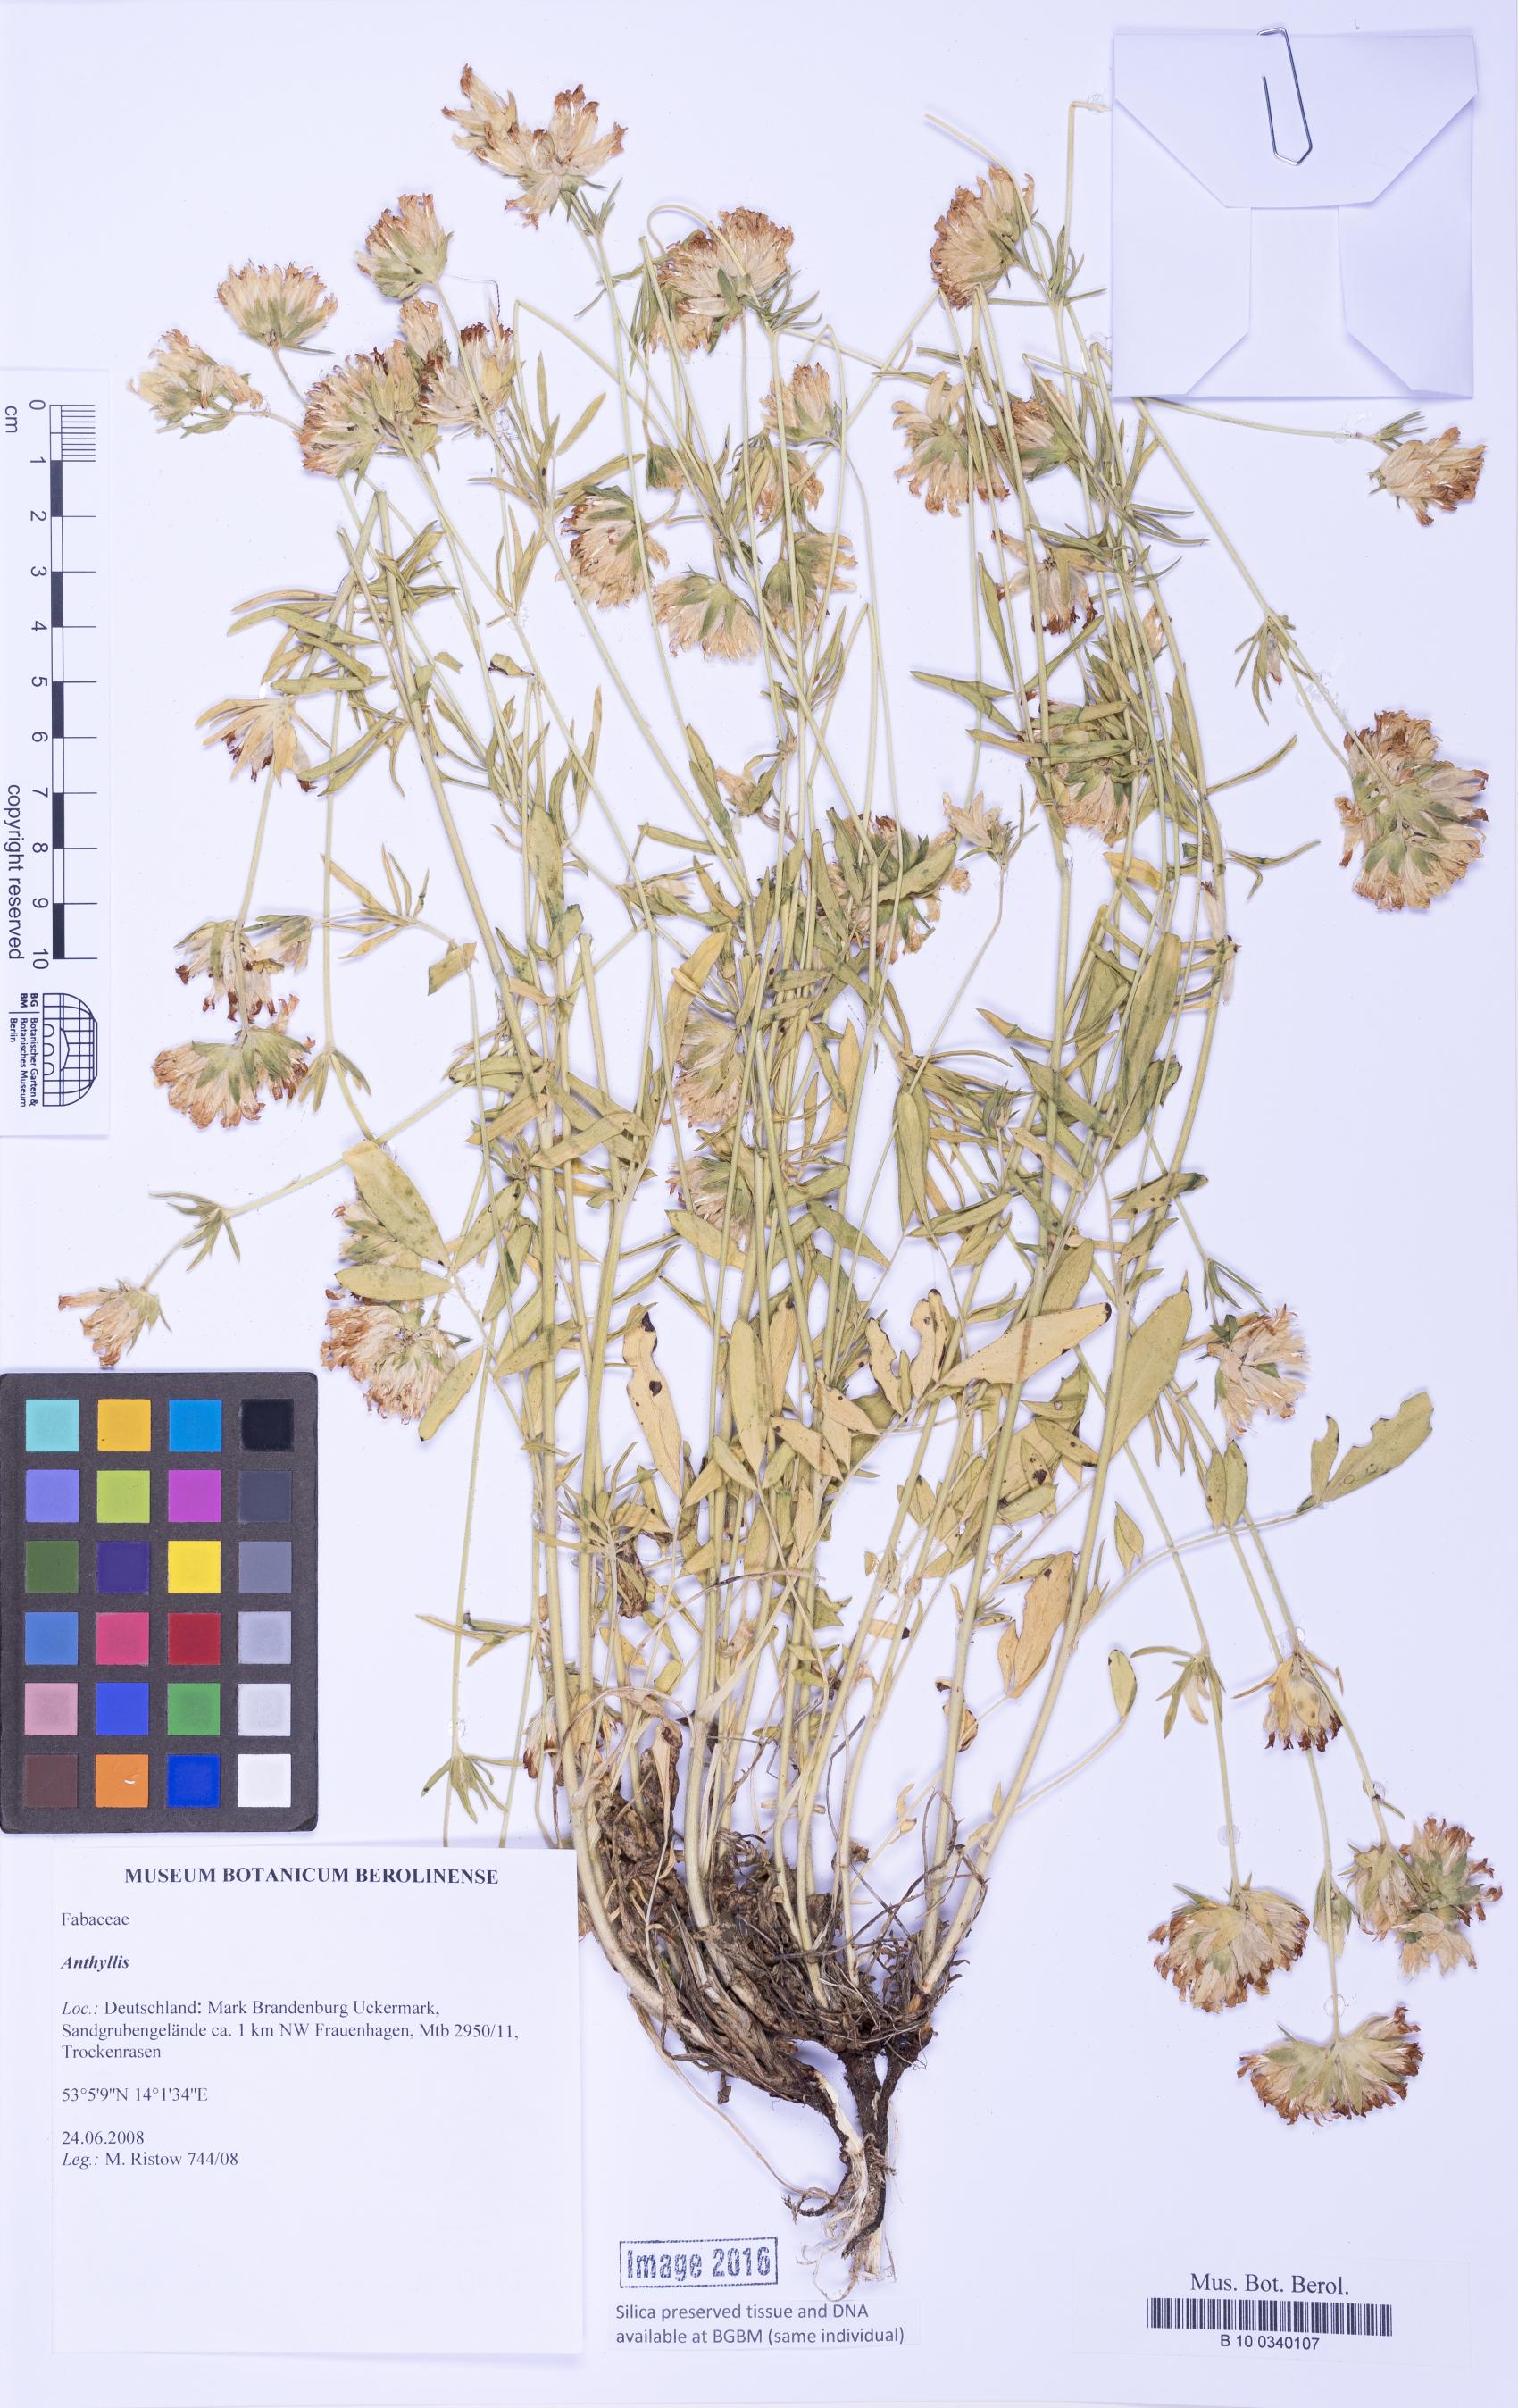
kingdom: Plantae
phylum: Tracheophyta
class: Magnoliopsida
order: Fabales
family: Fabaceae
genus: Anthyllis
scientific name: Anthyllis
